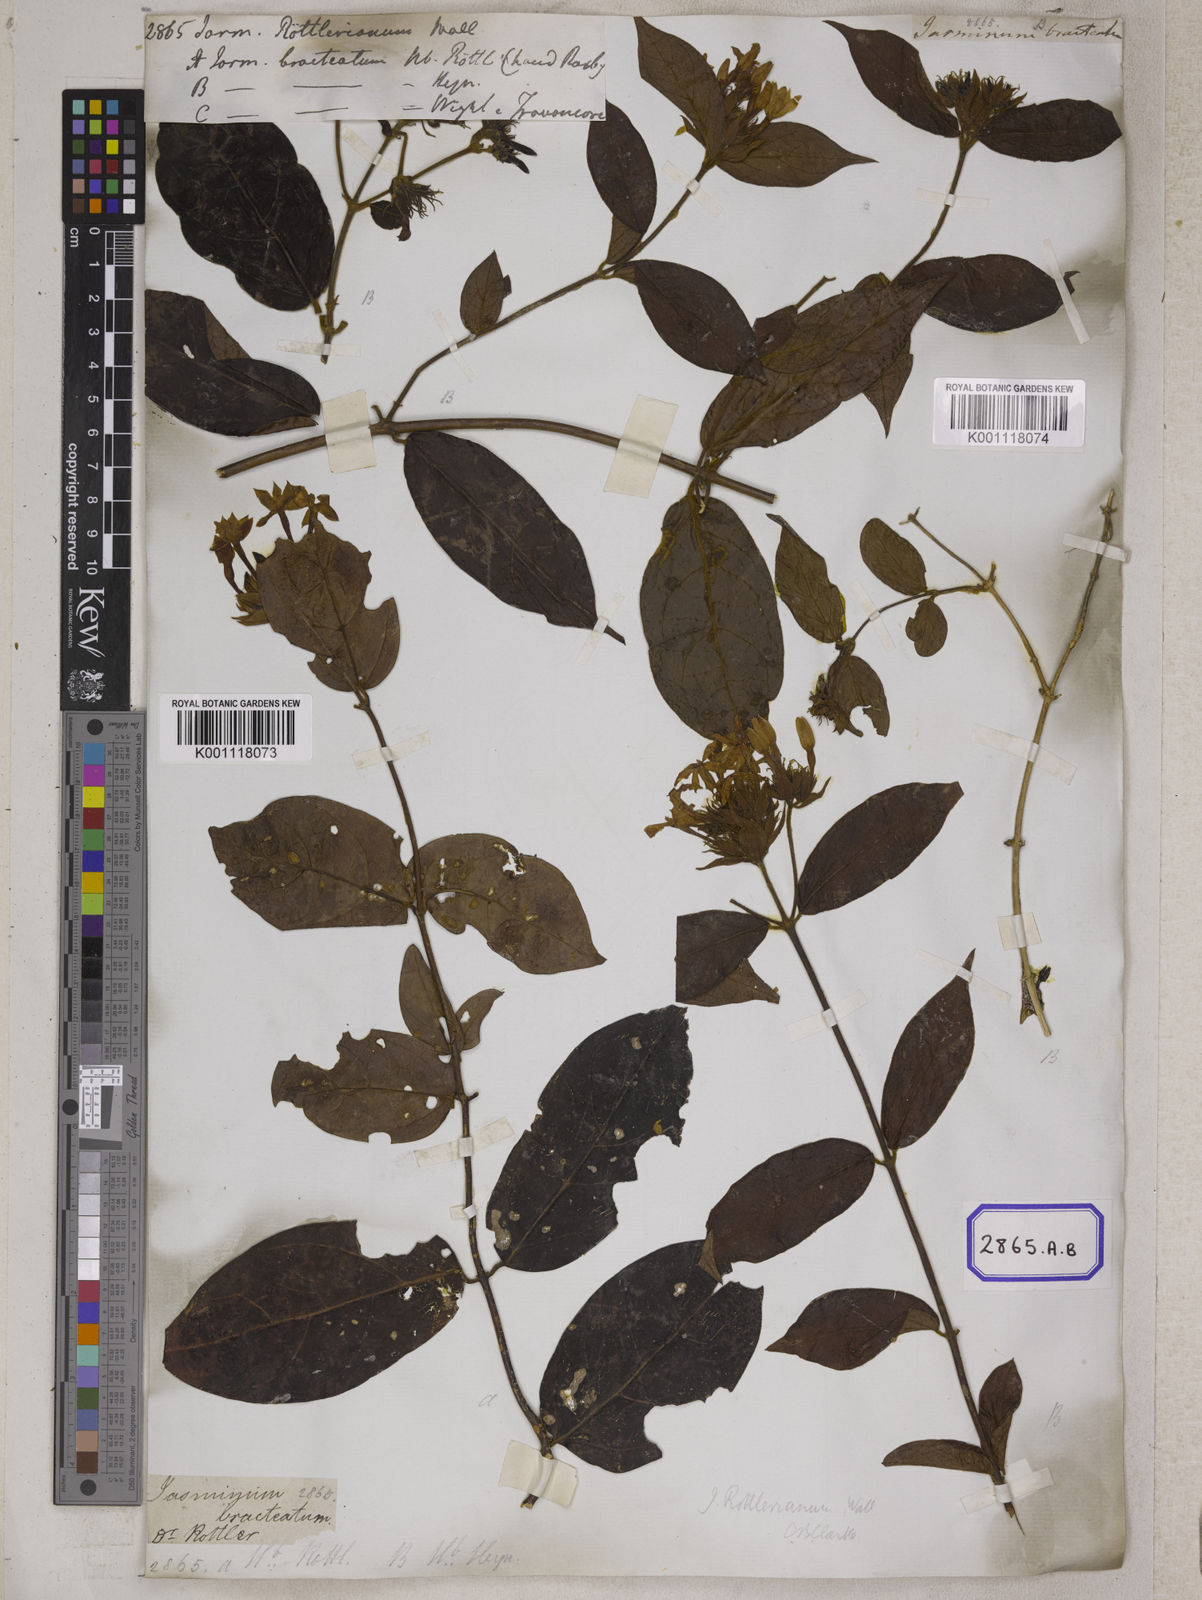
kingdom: Plantae
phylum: Tracheophyta
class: Magnoliopsida
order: Lamiales
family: Oleaceae
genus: Jasminum
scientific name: Jasminum
